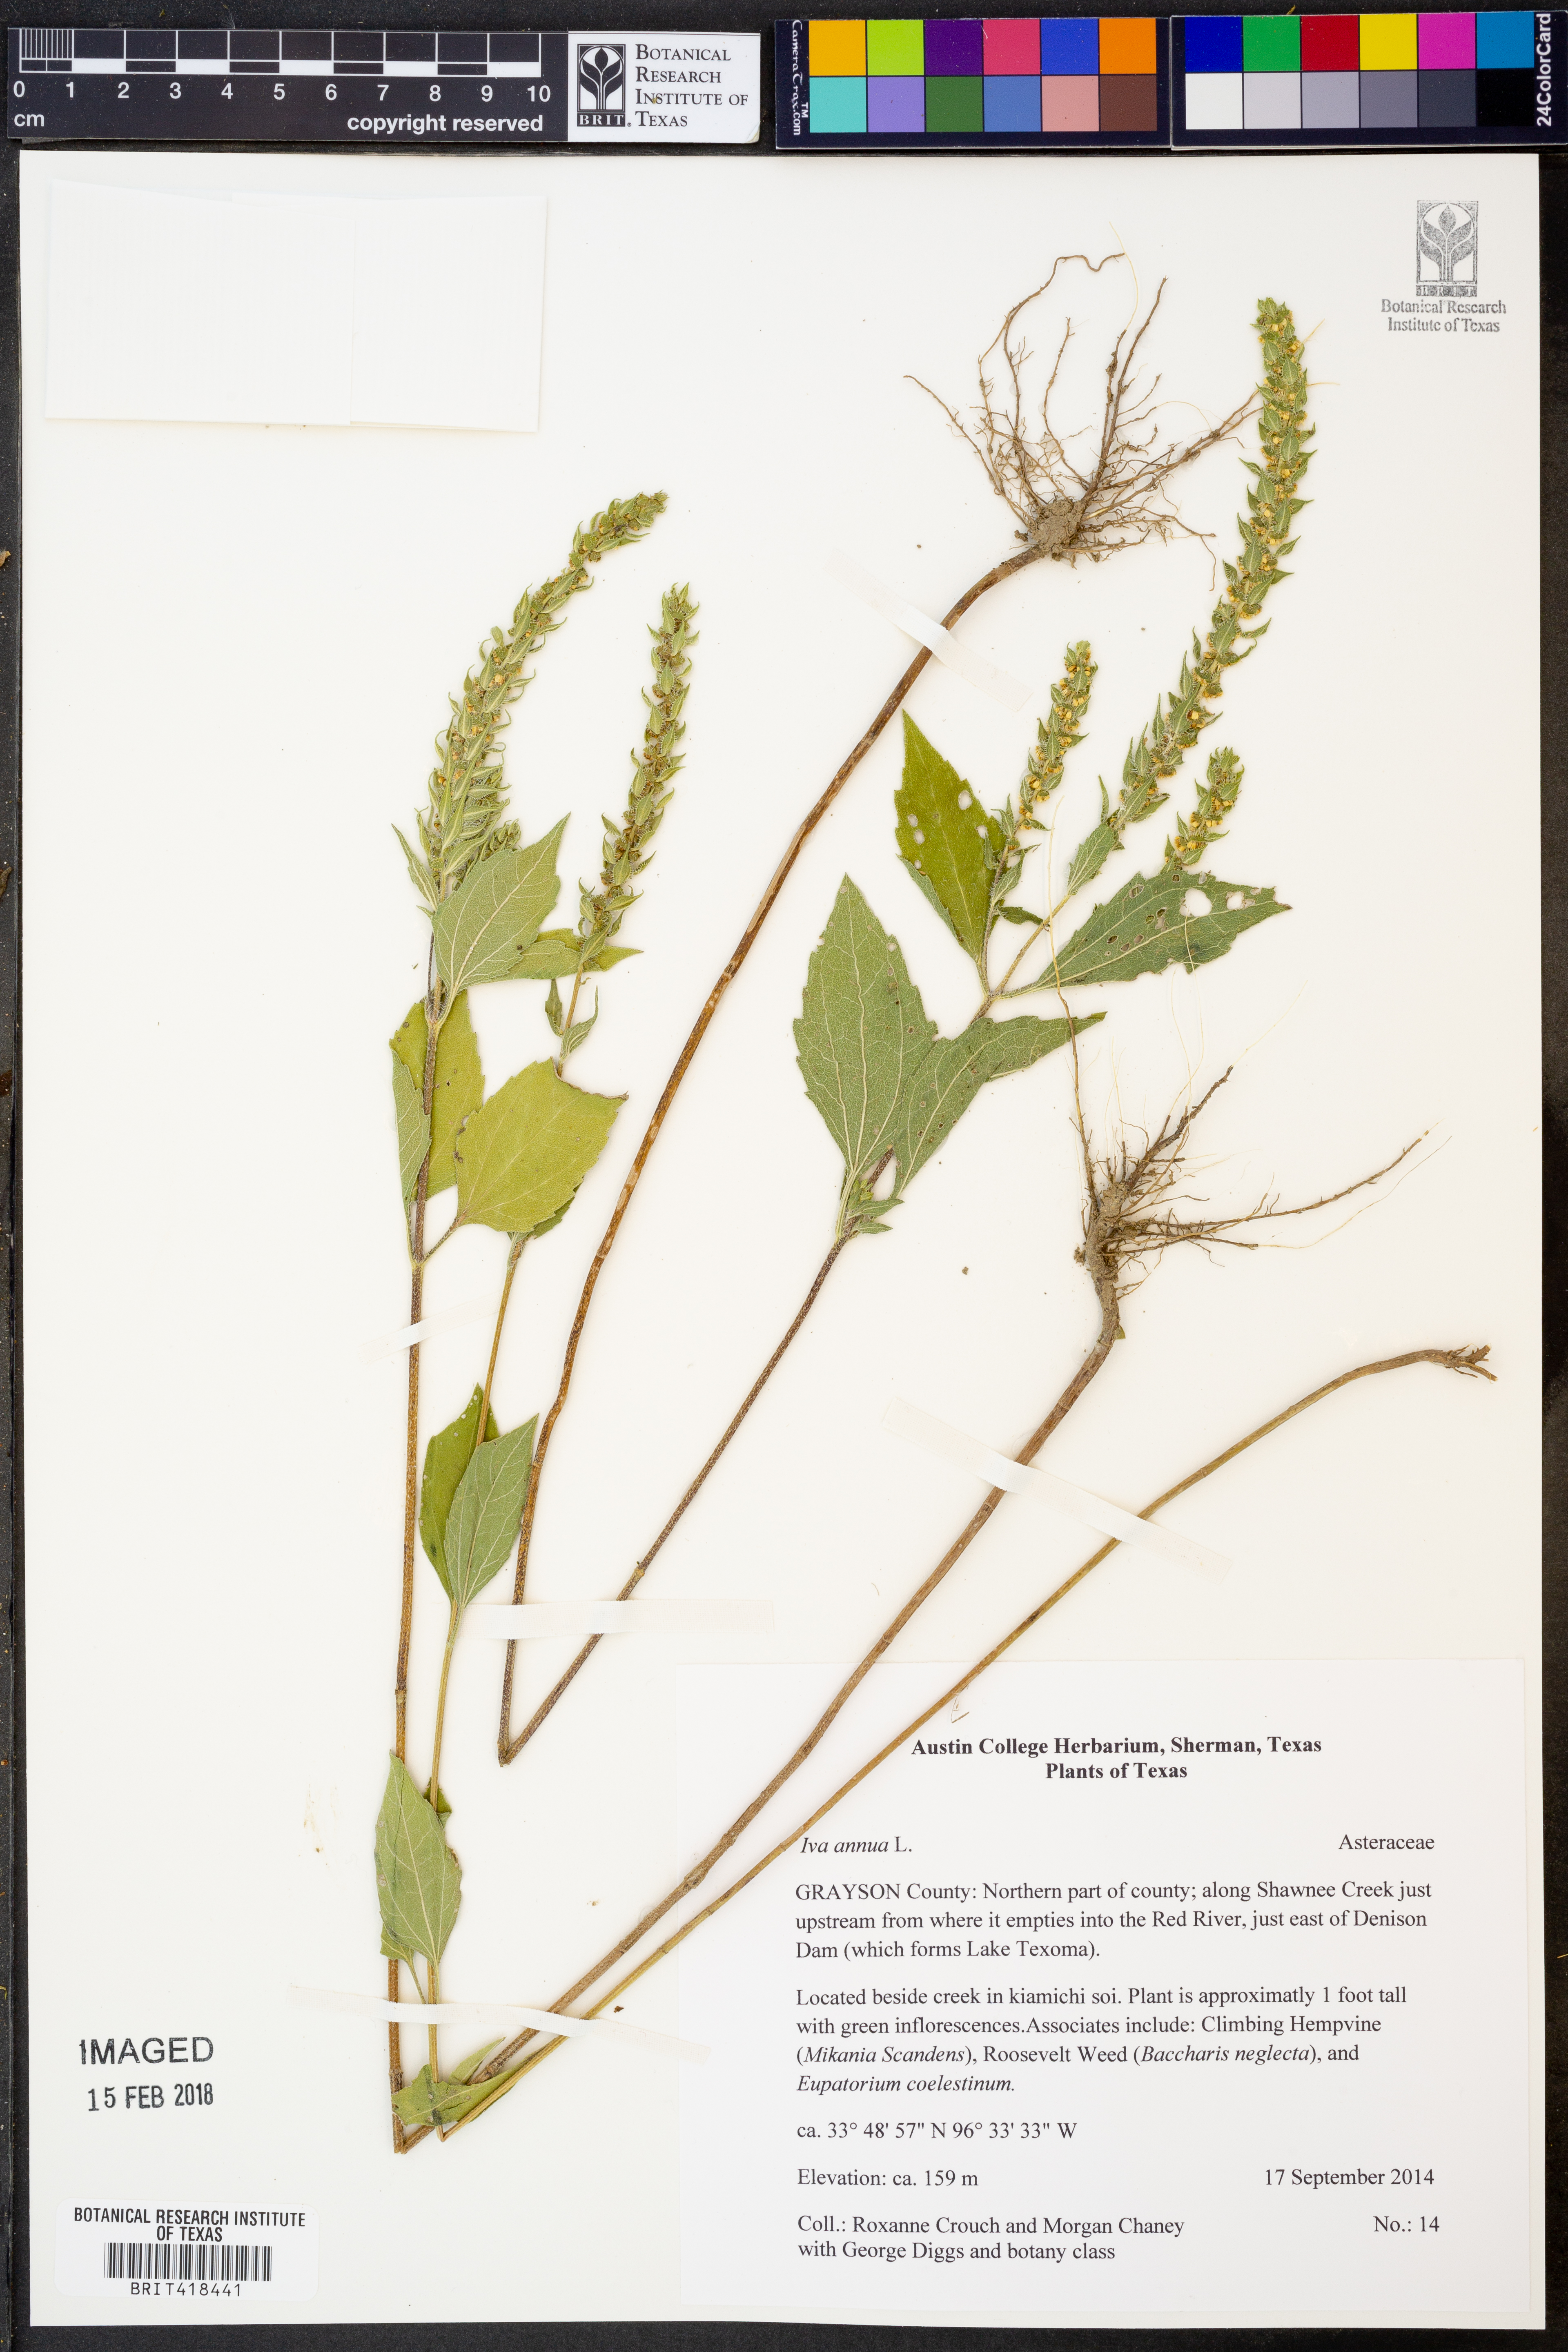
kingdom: Plantae
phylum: Tracheophyta
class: Magnoliopsida
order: Asterales
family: Asteraceae
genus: Iva
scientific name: Iva annua
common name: Marsh-elder
